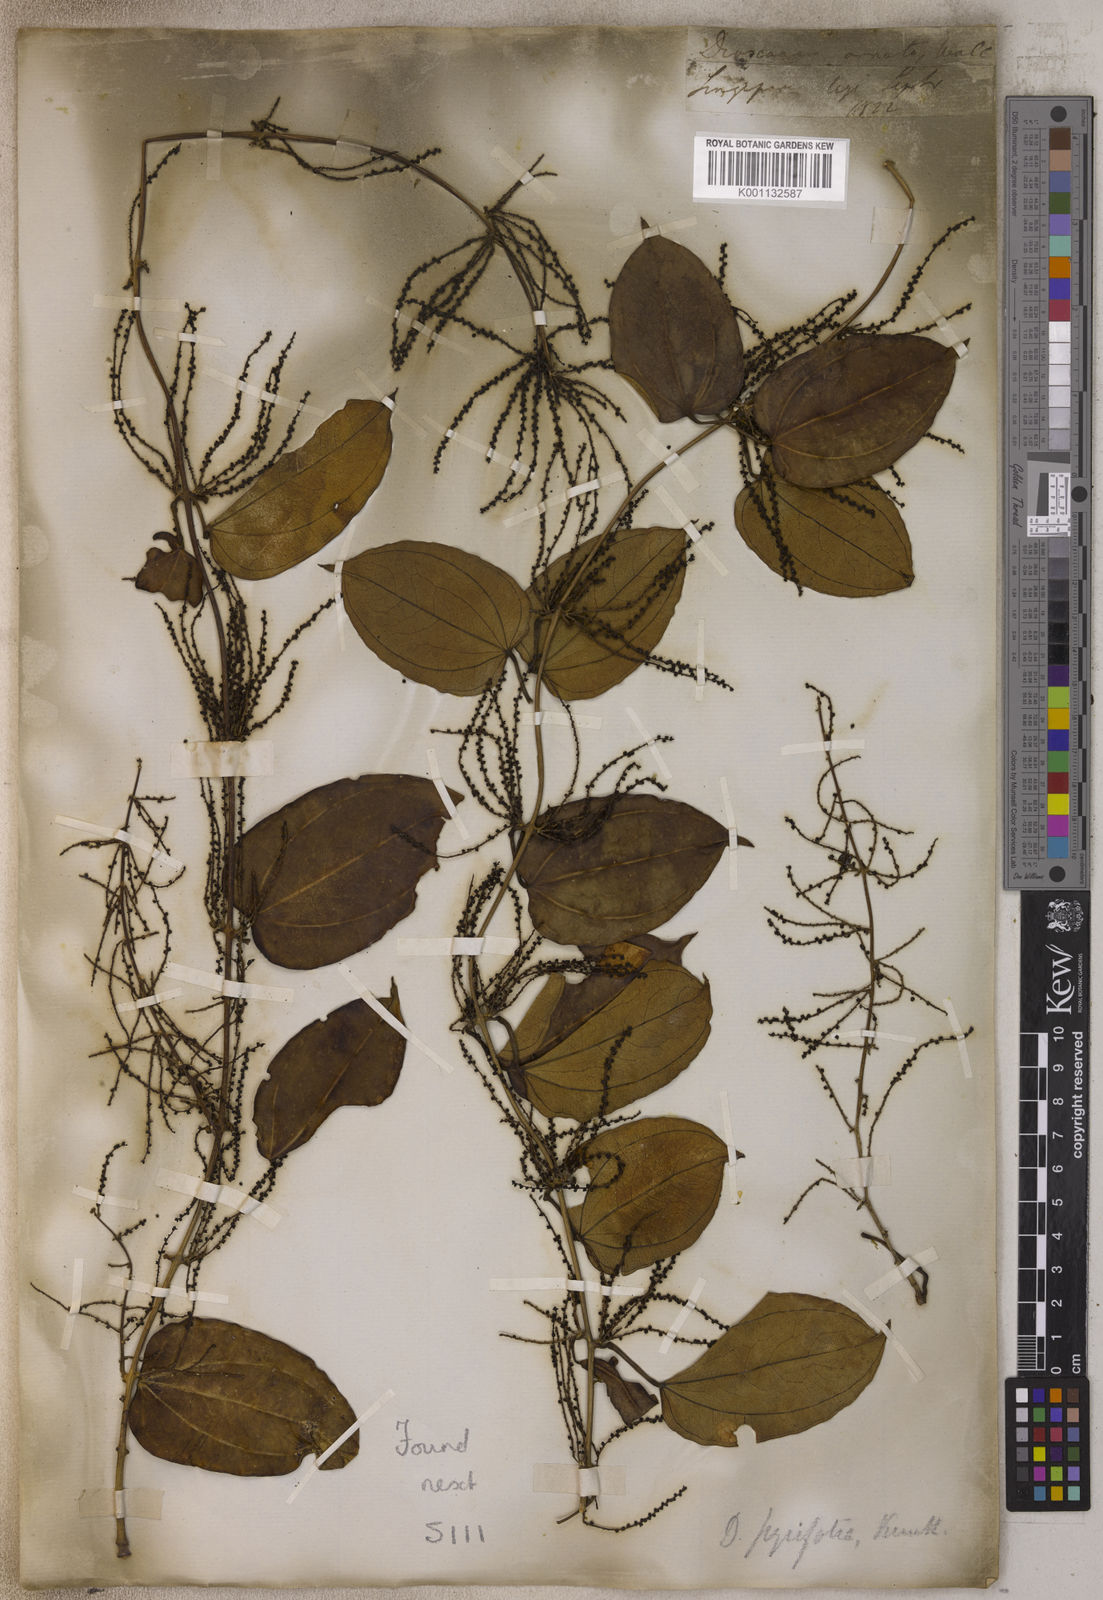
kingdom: Plantae
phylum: Tracheophyta
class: Liliopsida
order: Dioscoreales
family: Dioscoreaceae
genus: Dioscorea
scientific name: Dioscorea pyrifolia
